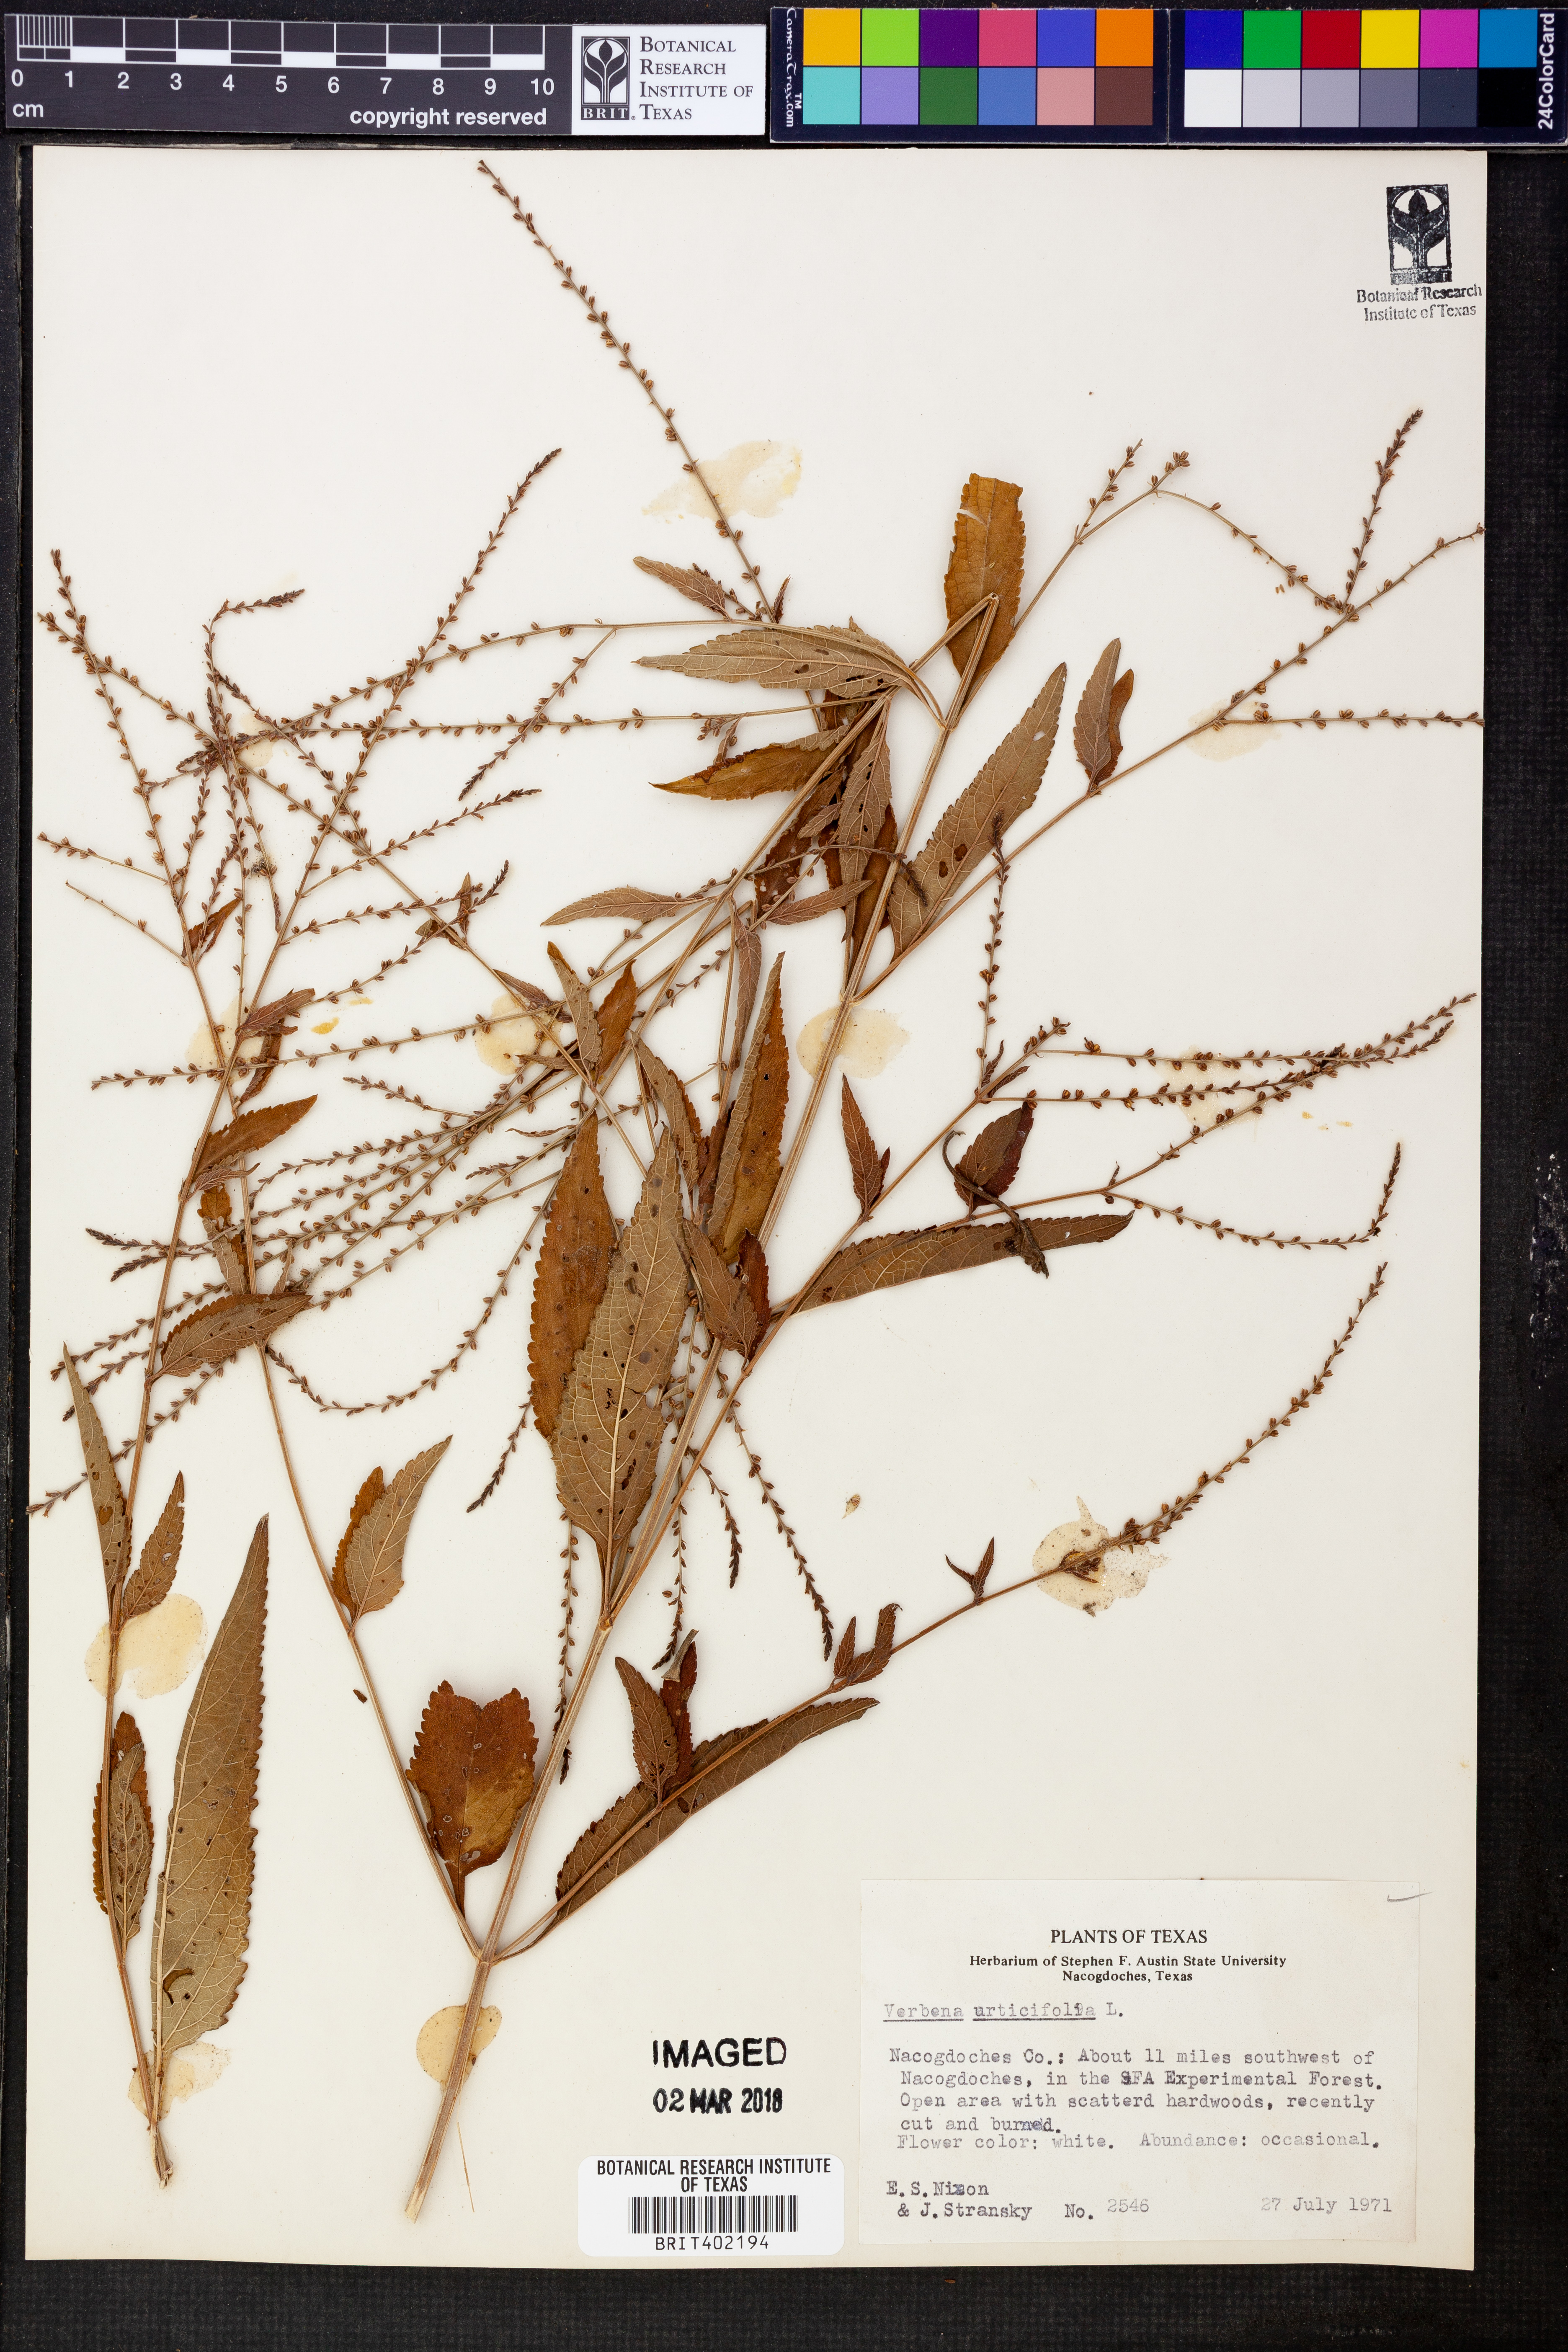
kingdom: Plantae
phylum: Tracheophyta
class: Magnoliopsida
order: Lamiales
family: Verbenaceae
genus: Verbena
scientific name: Verbena urticifolia
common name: Nettle-leaved vervain
